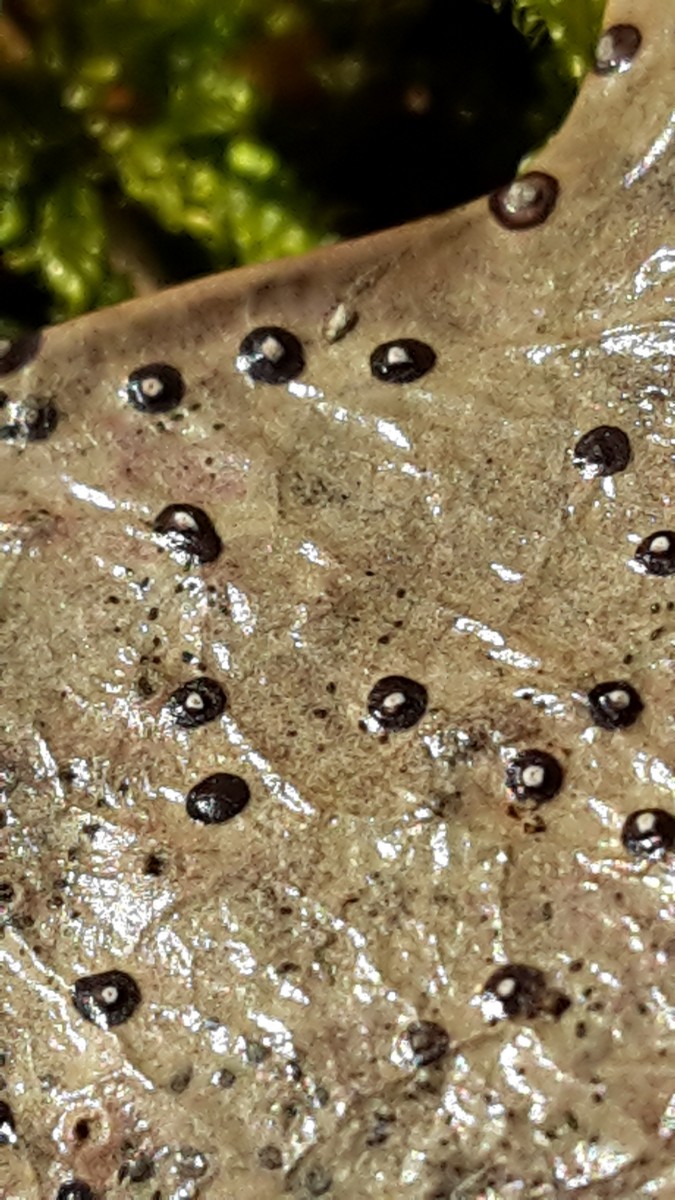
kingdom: Fungi
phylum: Ascomycota
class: Leotiomycetes
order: Phacidiales
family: Phacidiaceae
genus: Phacidium
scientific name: Phacidium lauri
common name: kristtorn-tandskive
